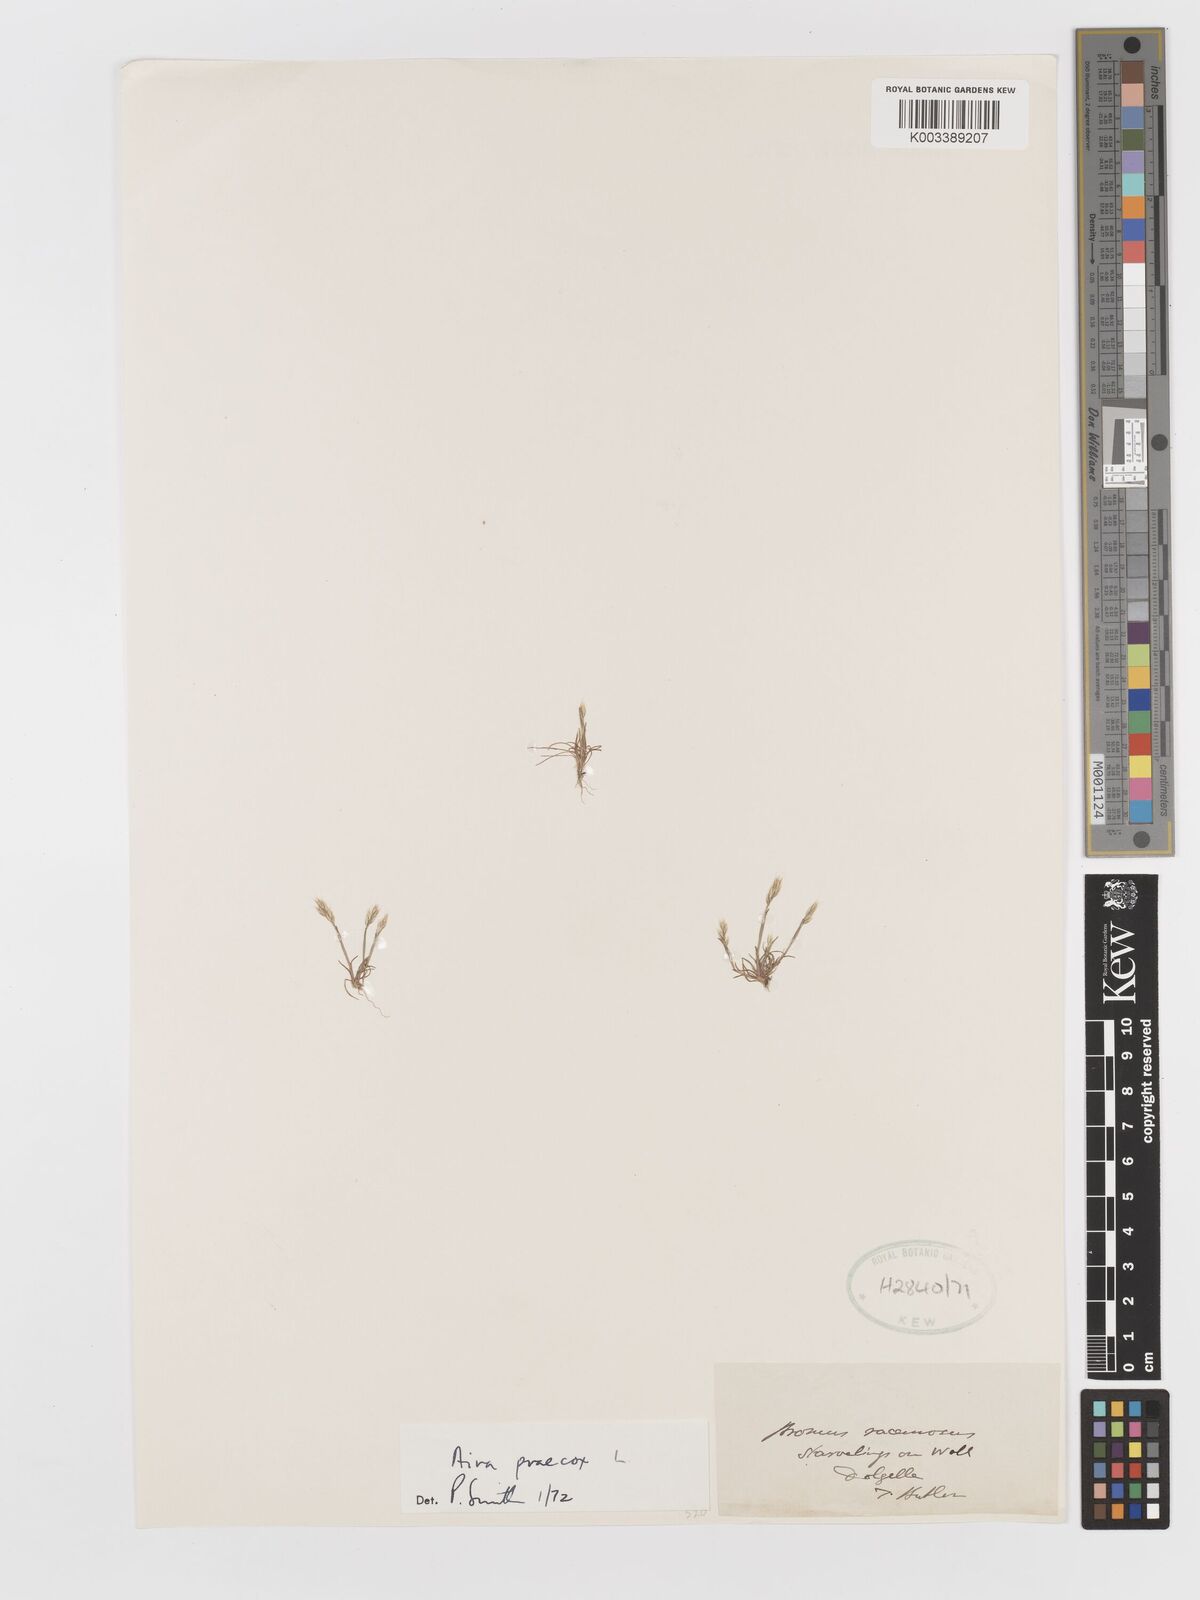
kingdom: Plantae
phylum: Tracheophyta
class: Liliopsida
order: Poales
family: Poaceae
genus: Aira
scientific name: Aira praecox
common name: Early hair-grass
